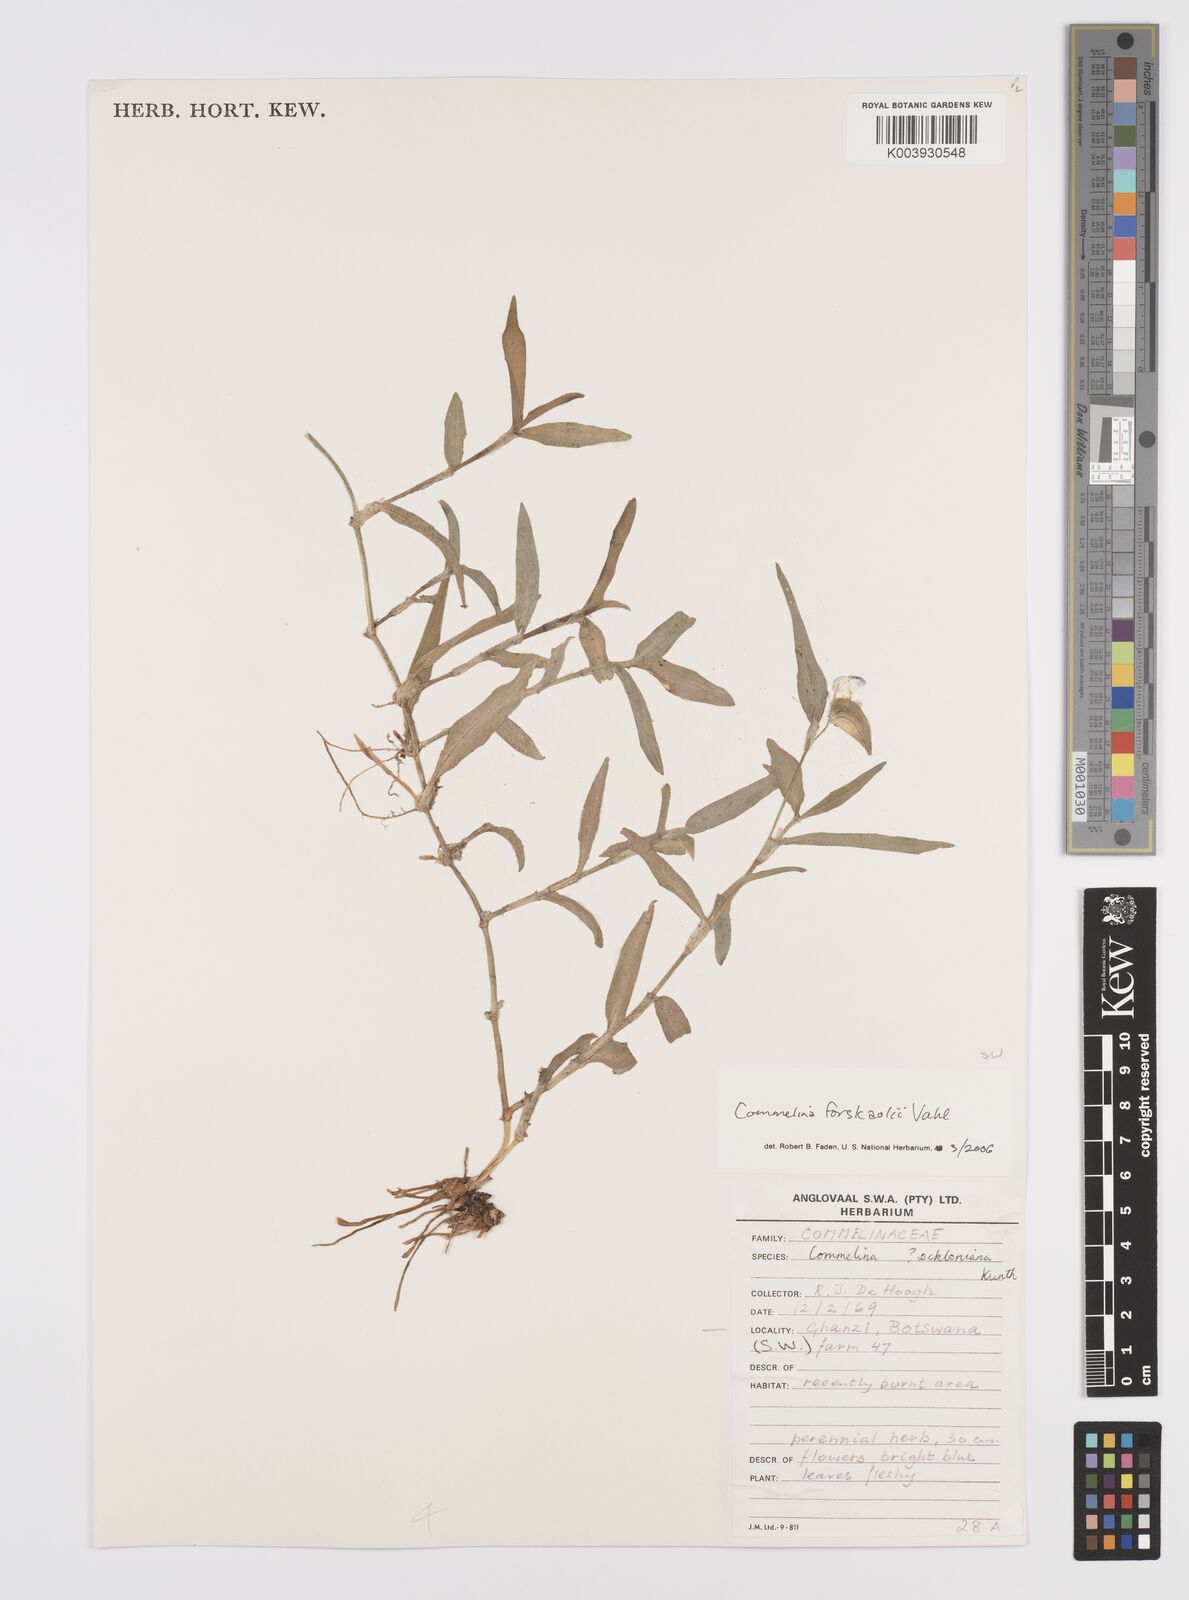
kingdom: Plantae
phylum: Tracheophyta
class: Liliopsida
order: Commelinales
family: Commelinaceae
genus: Commelina
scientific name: Commelina forskaolii
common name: Rat's ear
